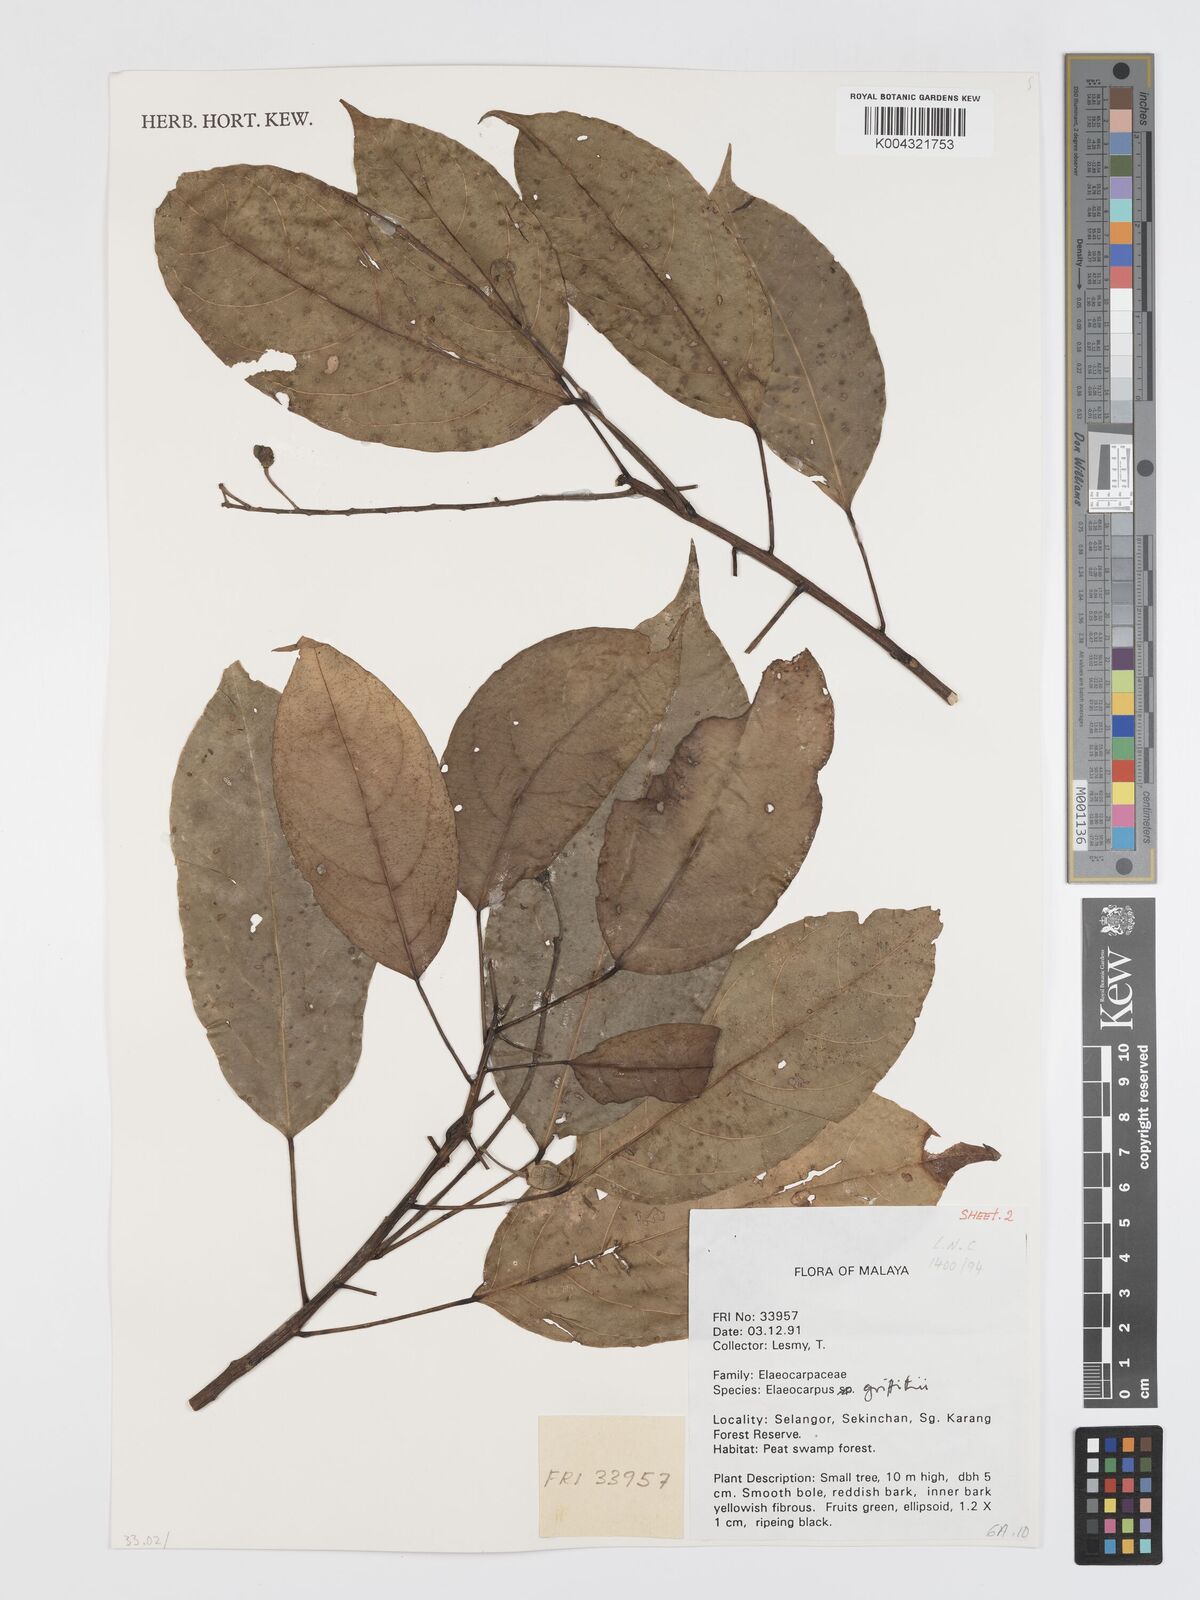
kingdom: Plantae
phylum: Tracheophyta
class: Magnoliopsida
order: Oxalidales
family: Elaeocarpaceae
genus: Elaeocarpus
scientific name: Elaeocarpus griffithii
